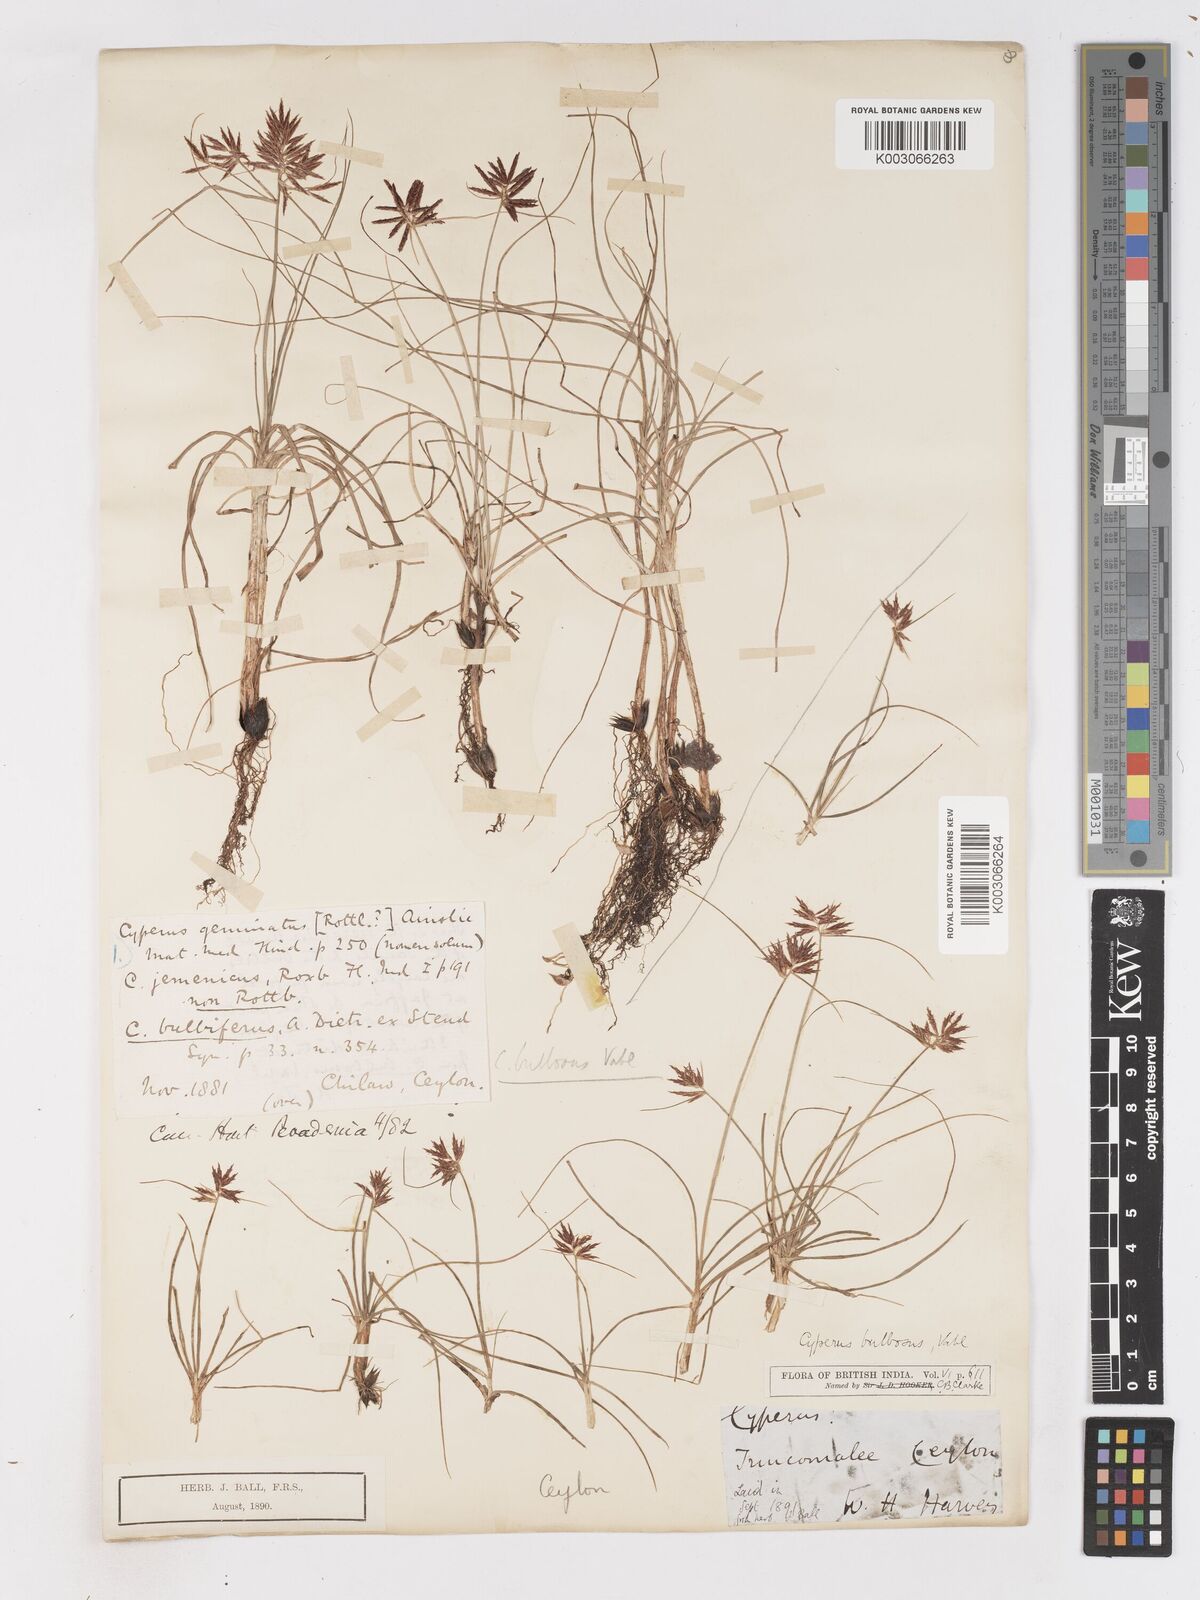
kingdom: Plantae
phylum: Tracheophyta
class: Liliopsida
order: Poales
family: Cyperaceae
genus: Cyperus
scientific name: Cyperus bulbosus
